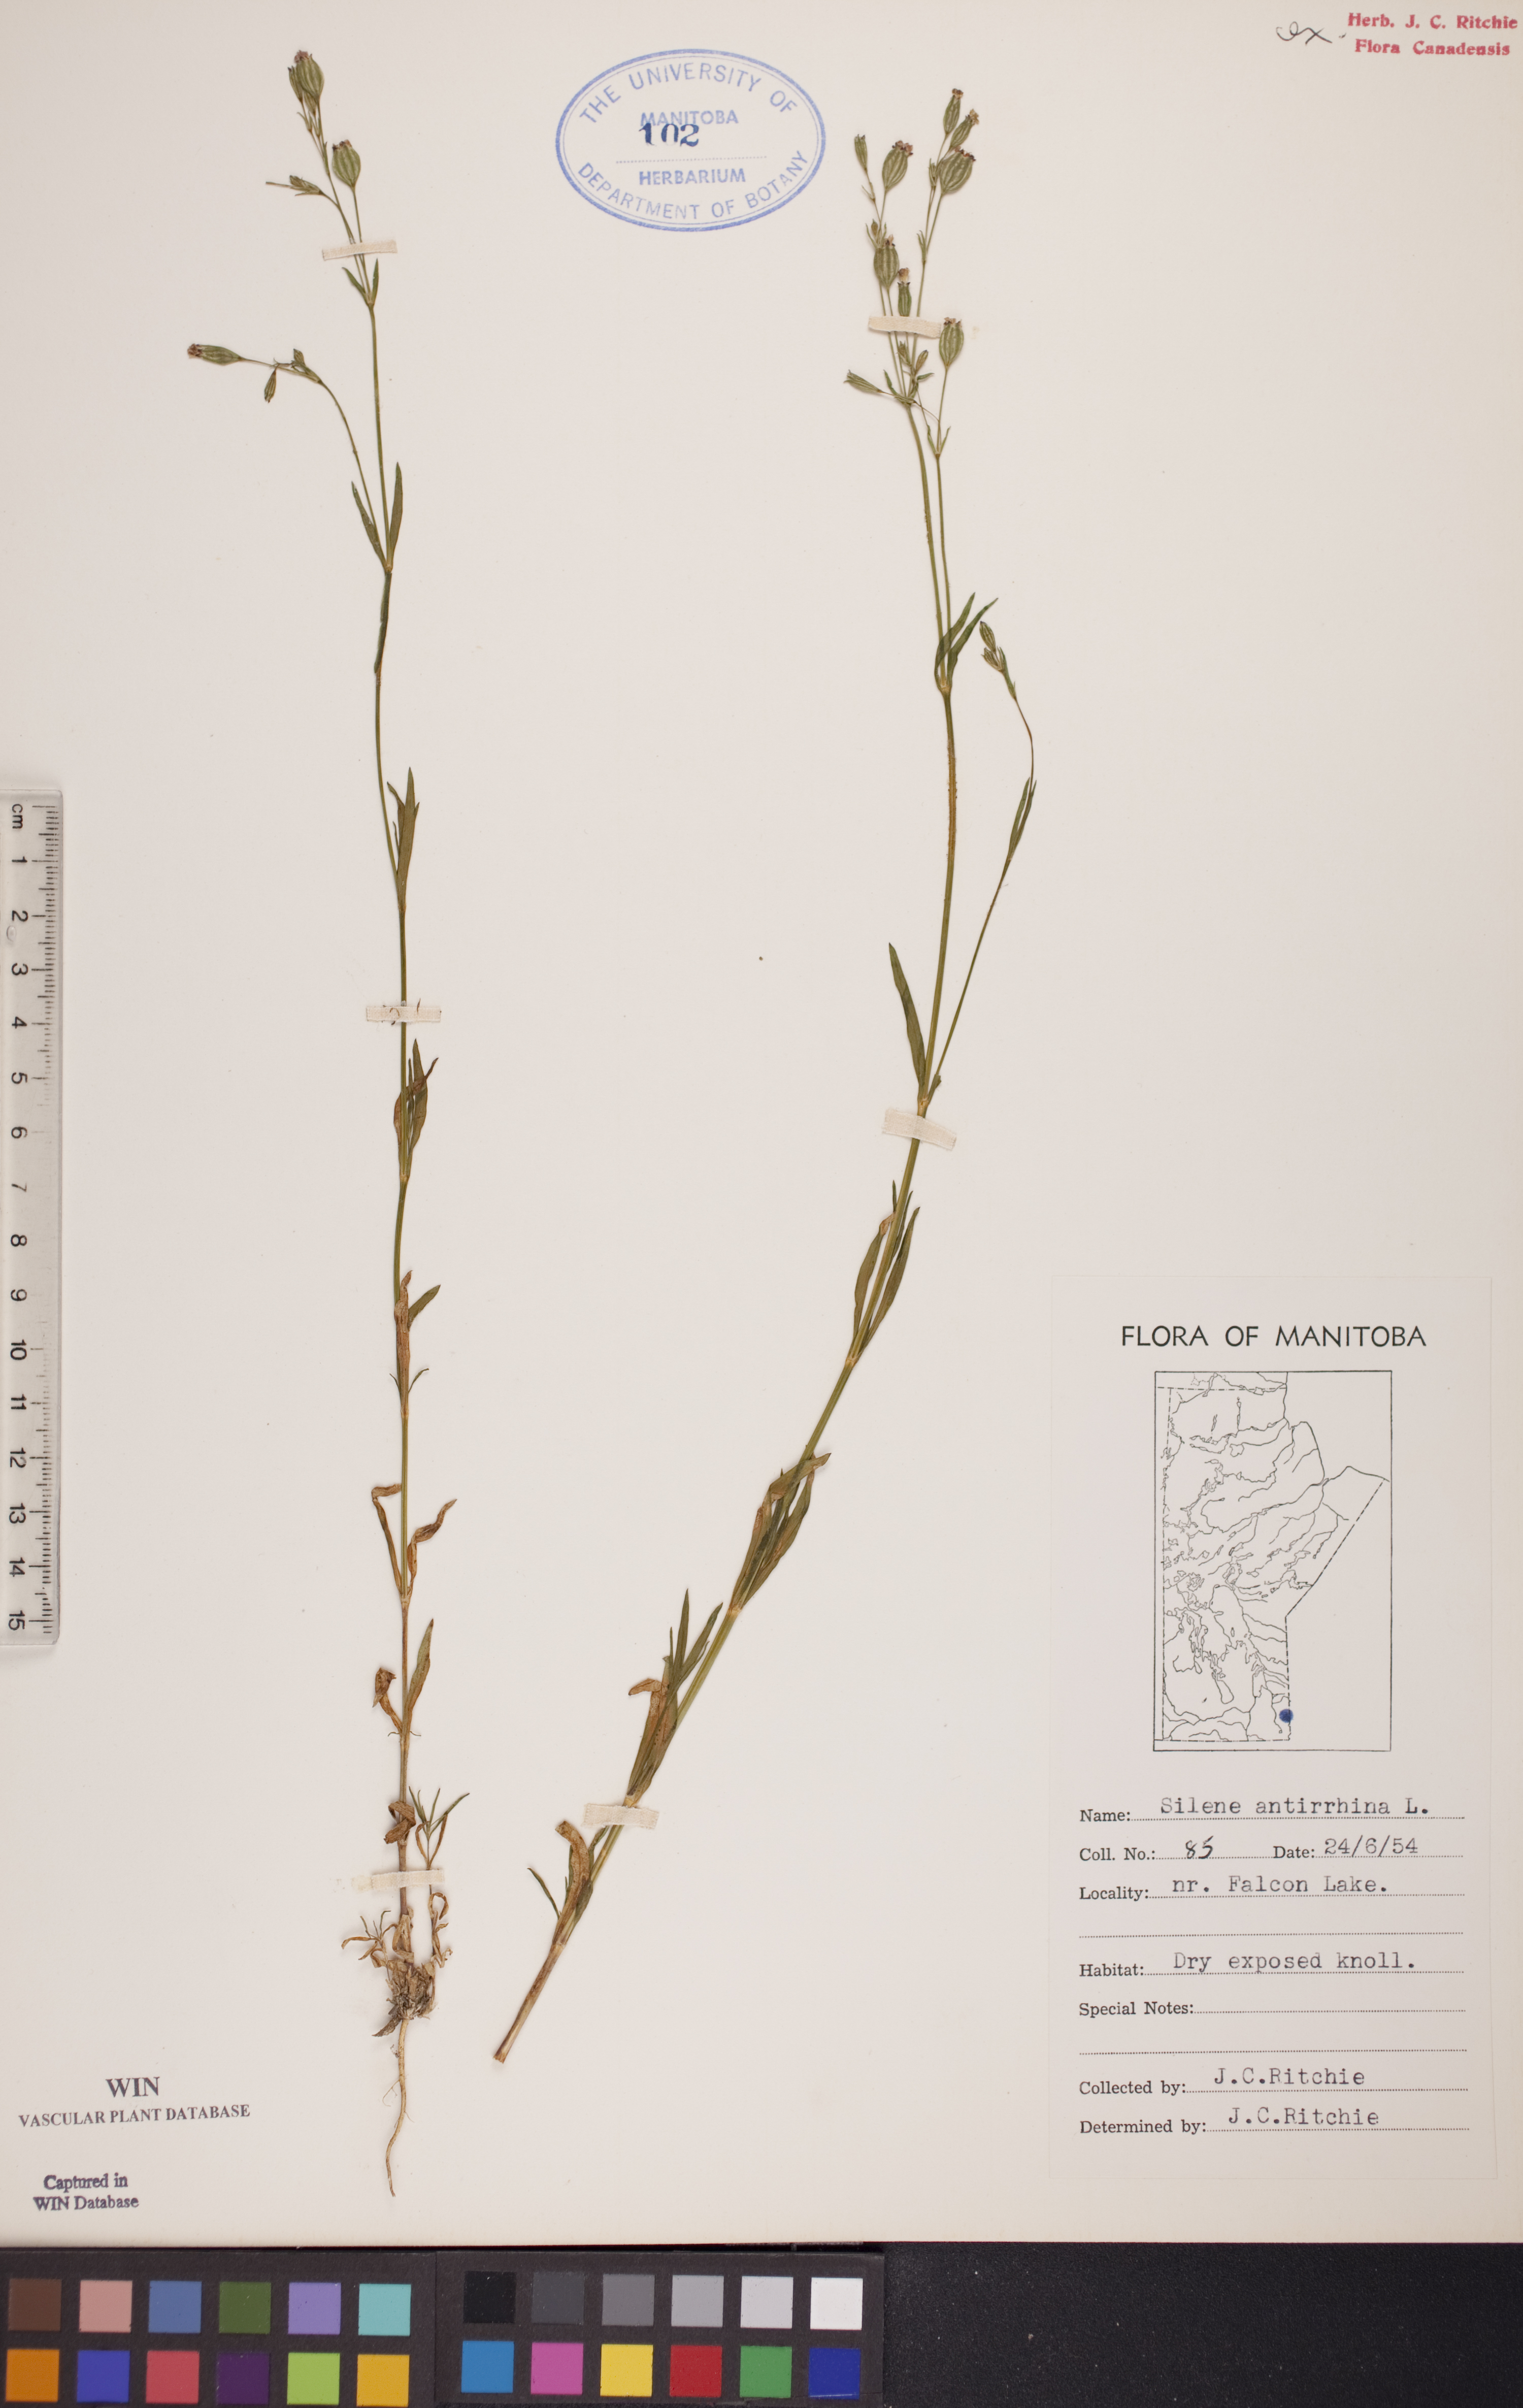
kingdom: Plantae
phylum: Tracheophyta
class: Magnoliopsida
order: Caryophyllales
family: Caryophyllaceae
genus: Silene
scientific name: Silene antirrhina
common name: Sleepy catchfly
